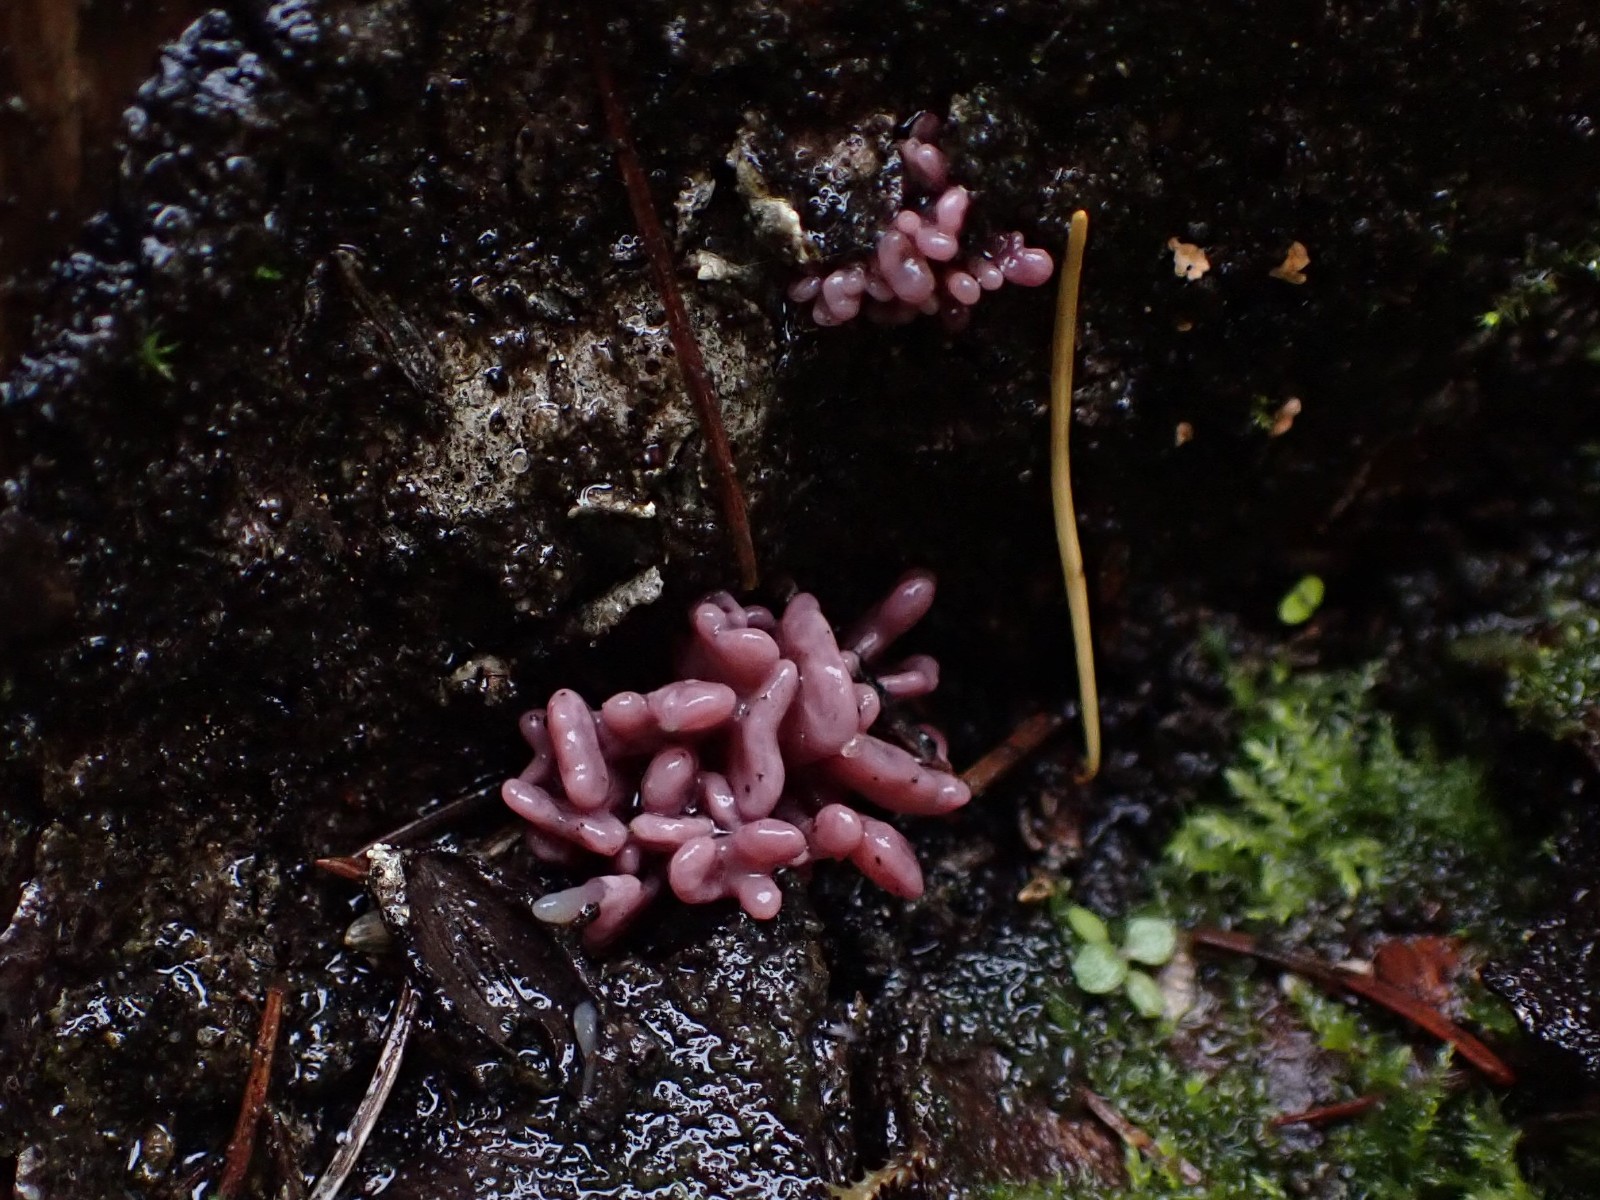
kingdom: Fungi
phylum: Ascomycota
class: Leotiomycetes
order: Helotiales
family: Gelatinodiscaceae
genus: Ascocoryne
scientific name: Ascocoryne sarcoides
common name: rødlilla sejskive
